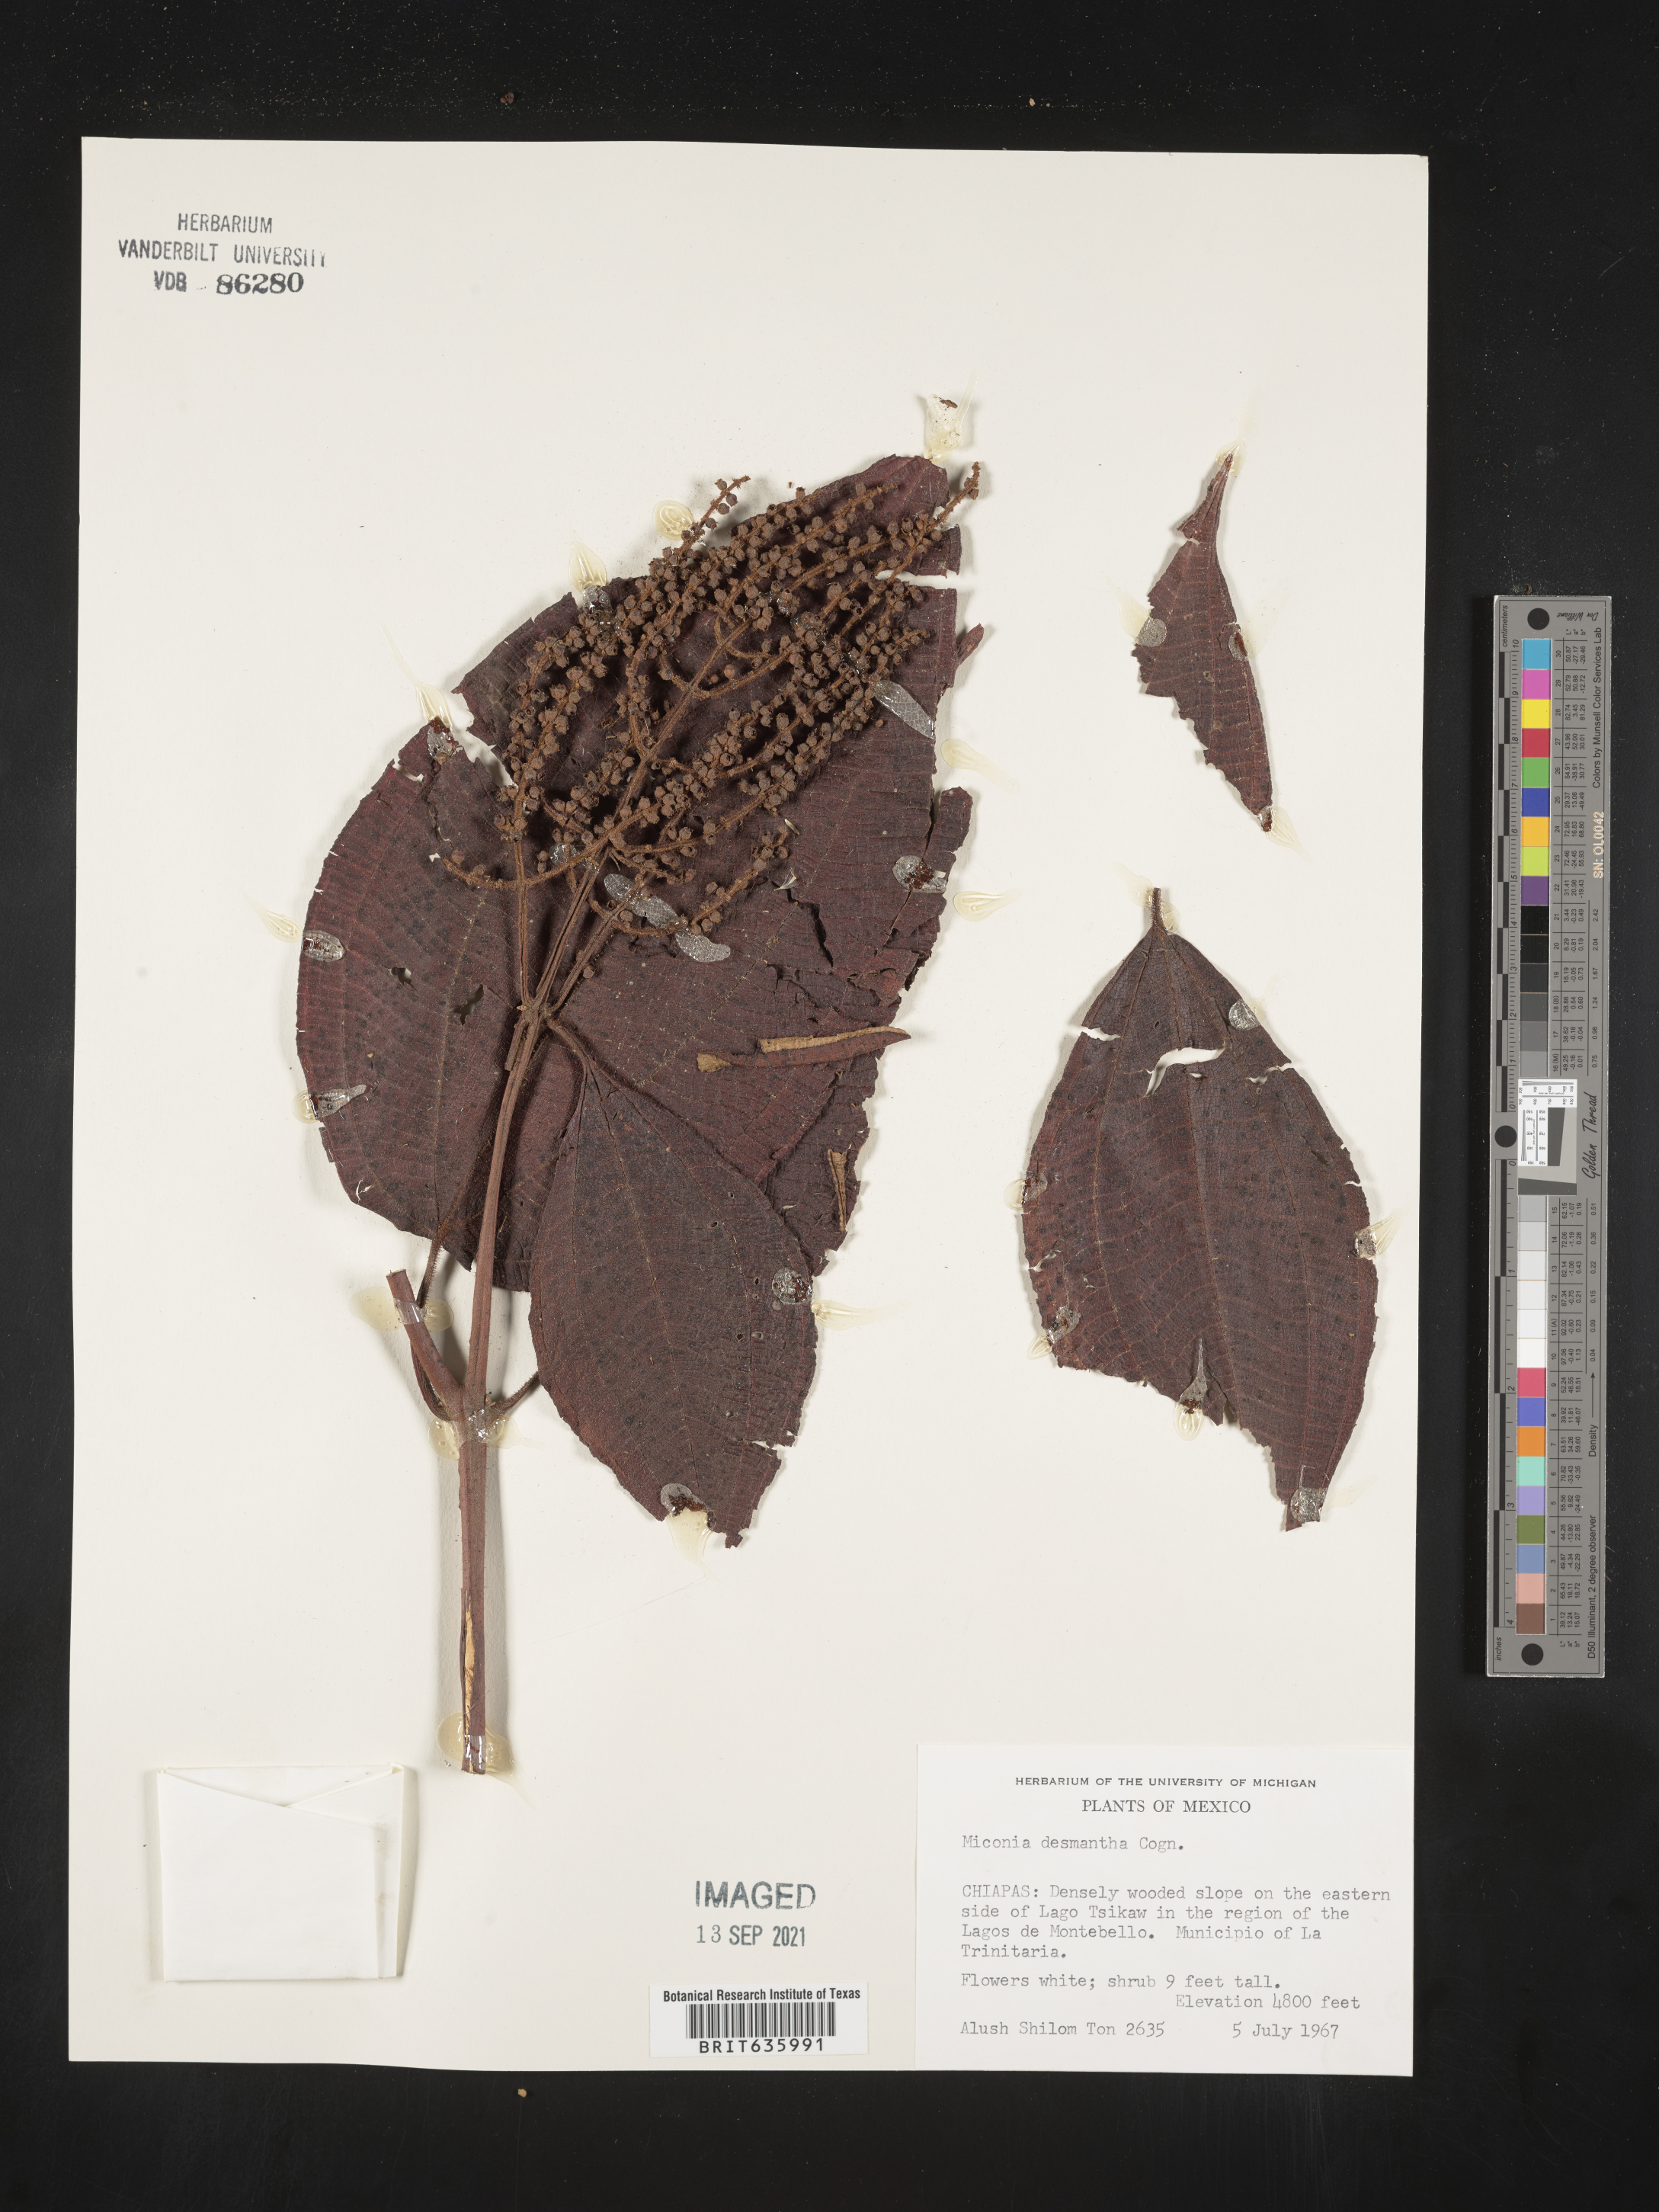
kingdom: Plantae
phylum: Tracheophyta
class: Magnoliopsida
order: Myrtales
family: Melastomataceae
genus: Miconia
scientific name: Miconia
